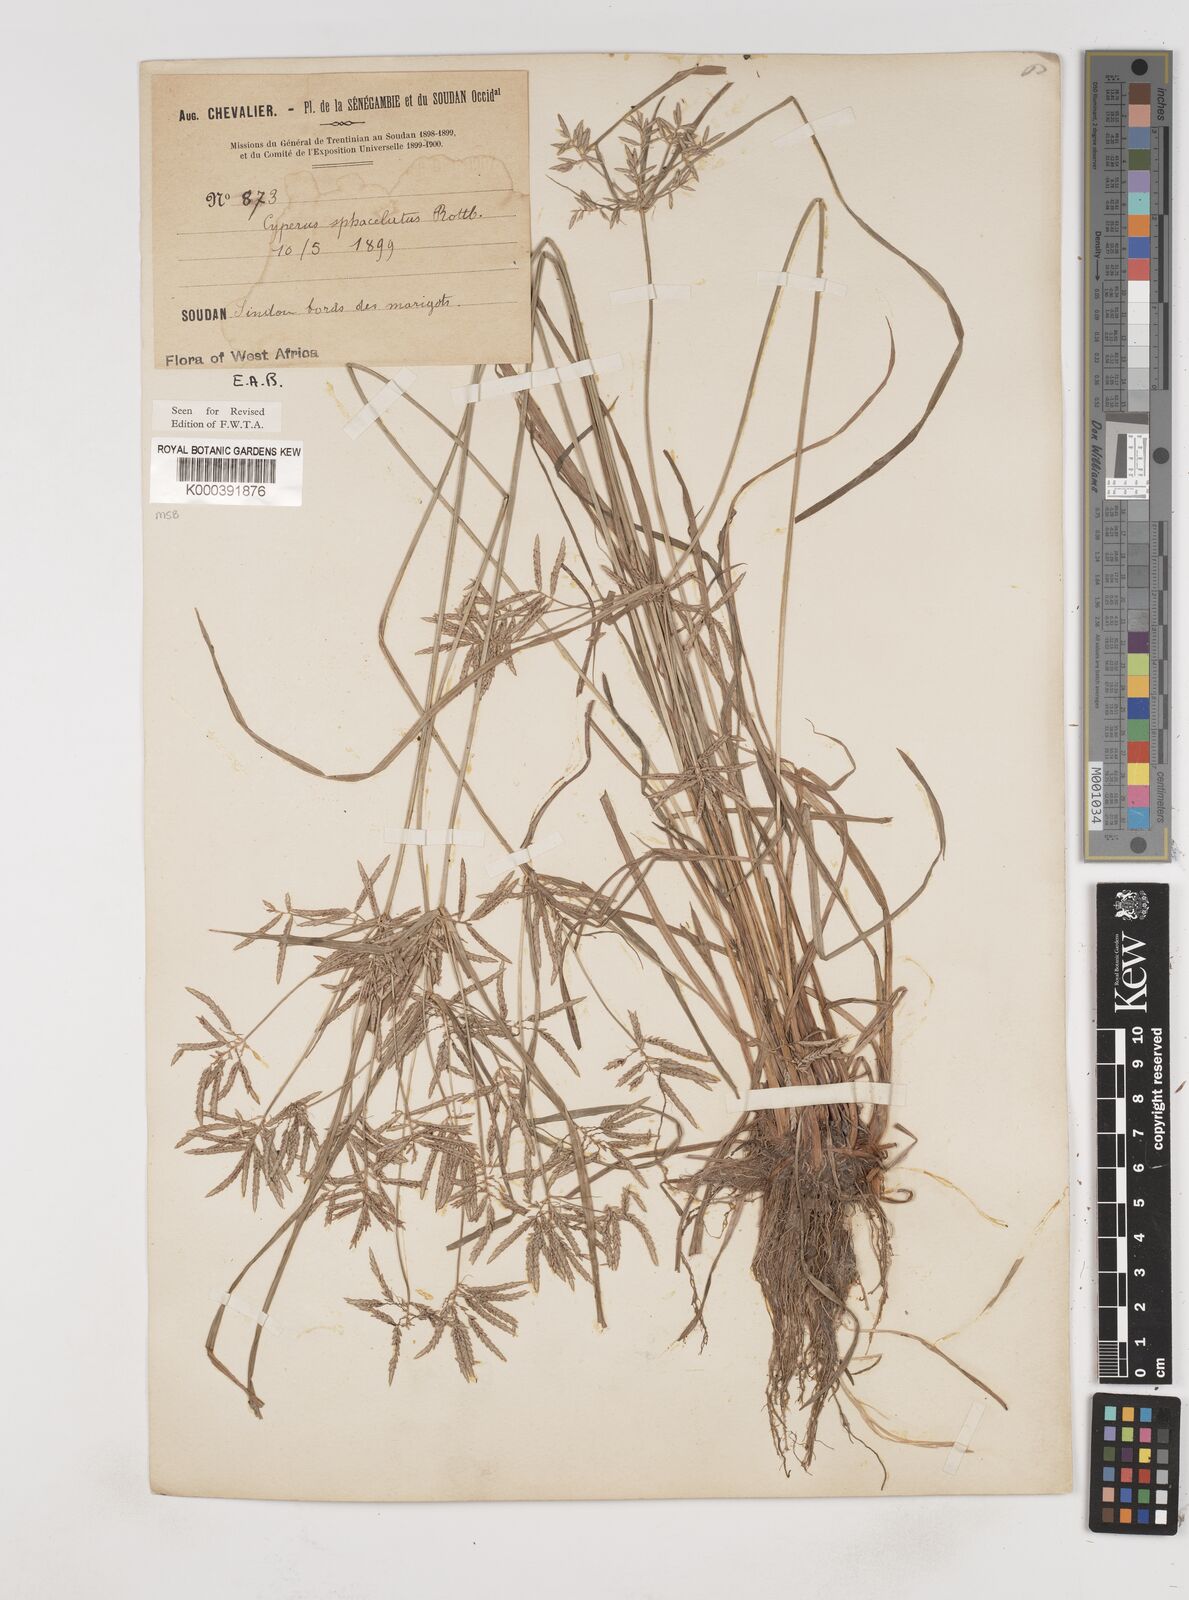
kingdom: Plantae
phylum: Tracheophyta
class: Liliopsida
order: Poales
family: Cyperaceae
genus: Cyperus
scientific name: Cyperus sphacelatus
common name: Roadside flatsedge
